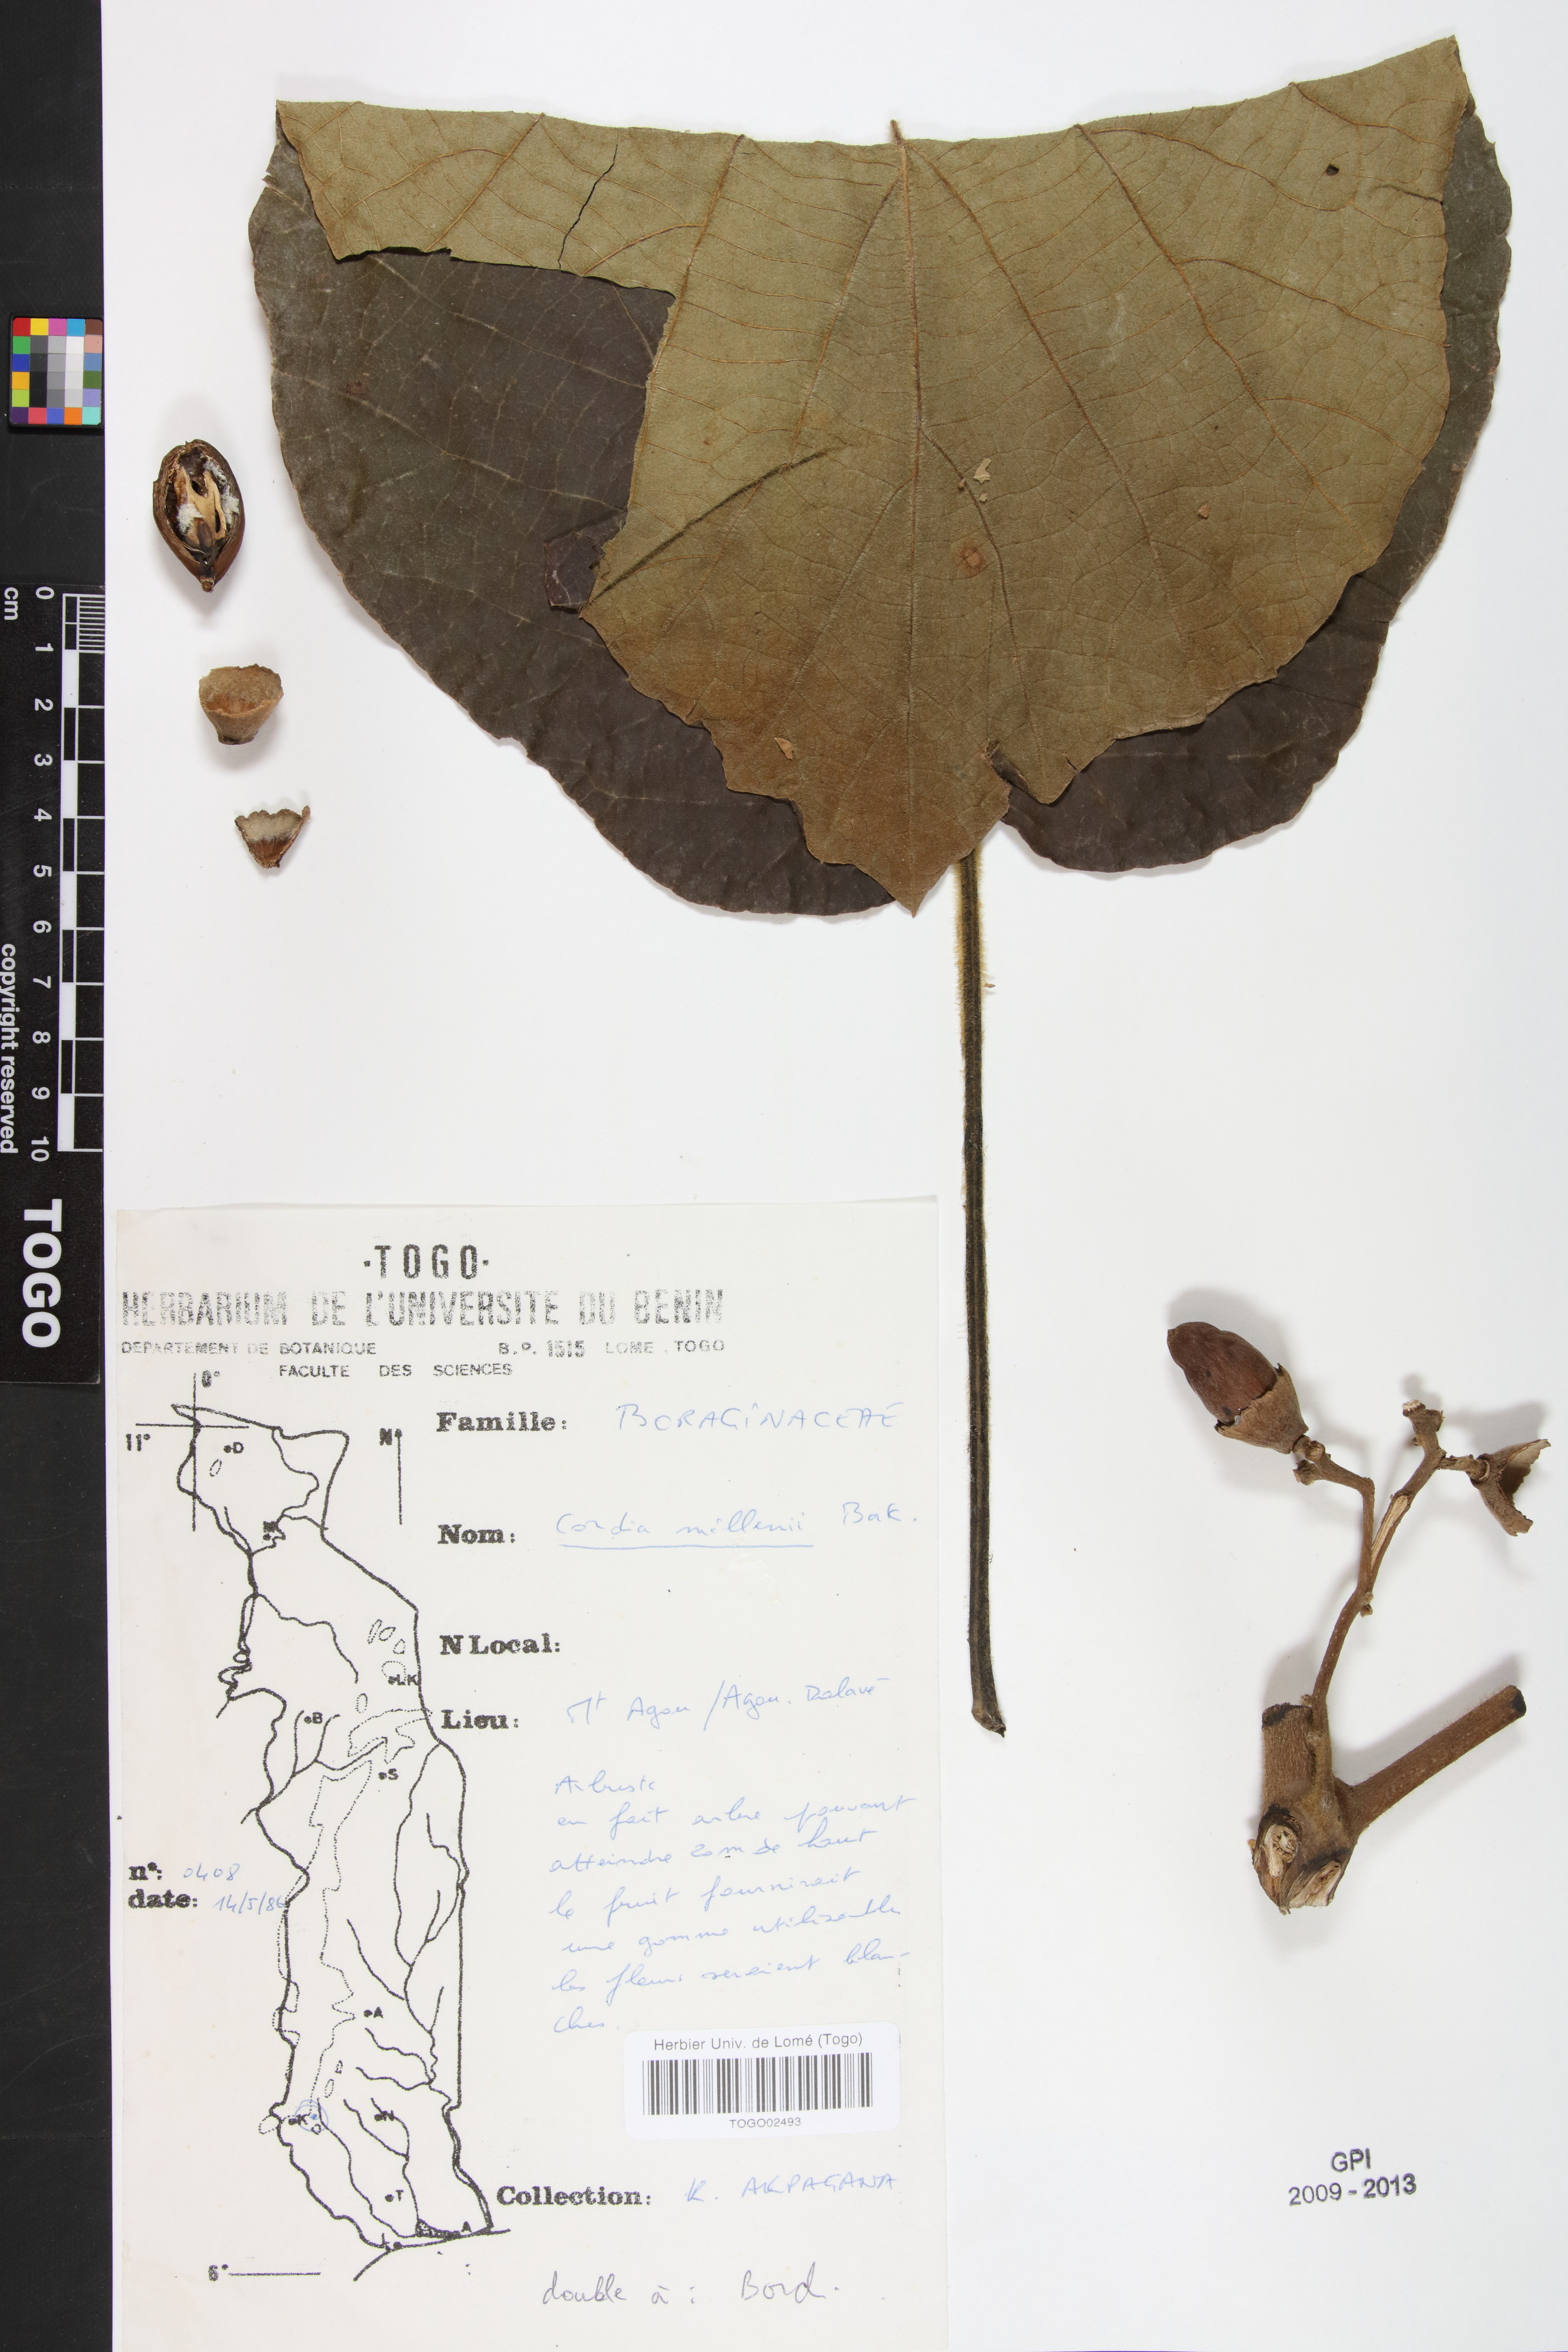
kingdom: Plantae
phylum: Tracheophyta
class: Magnoliopsida
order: Boraginales
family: Cordiaceae
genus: Cordia
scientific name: Cordia millenii
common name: Drum tree
